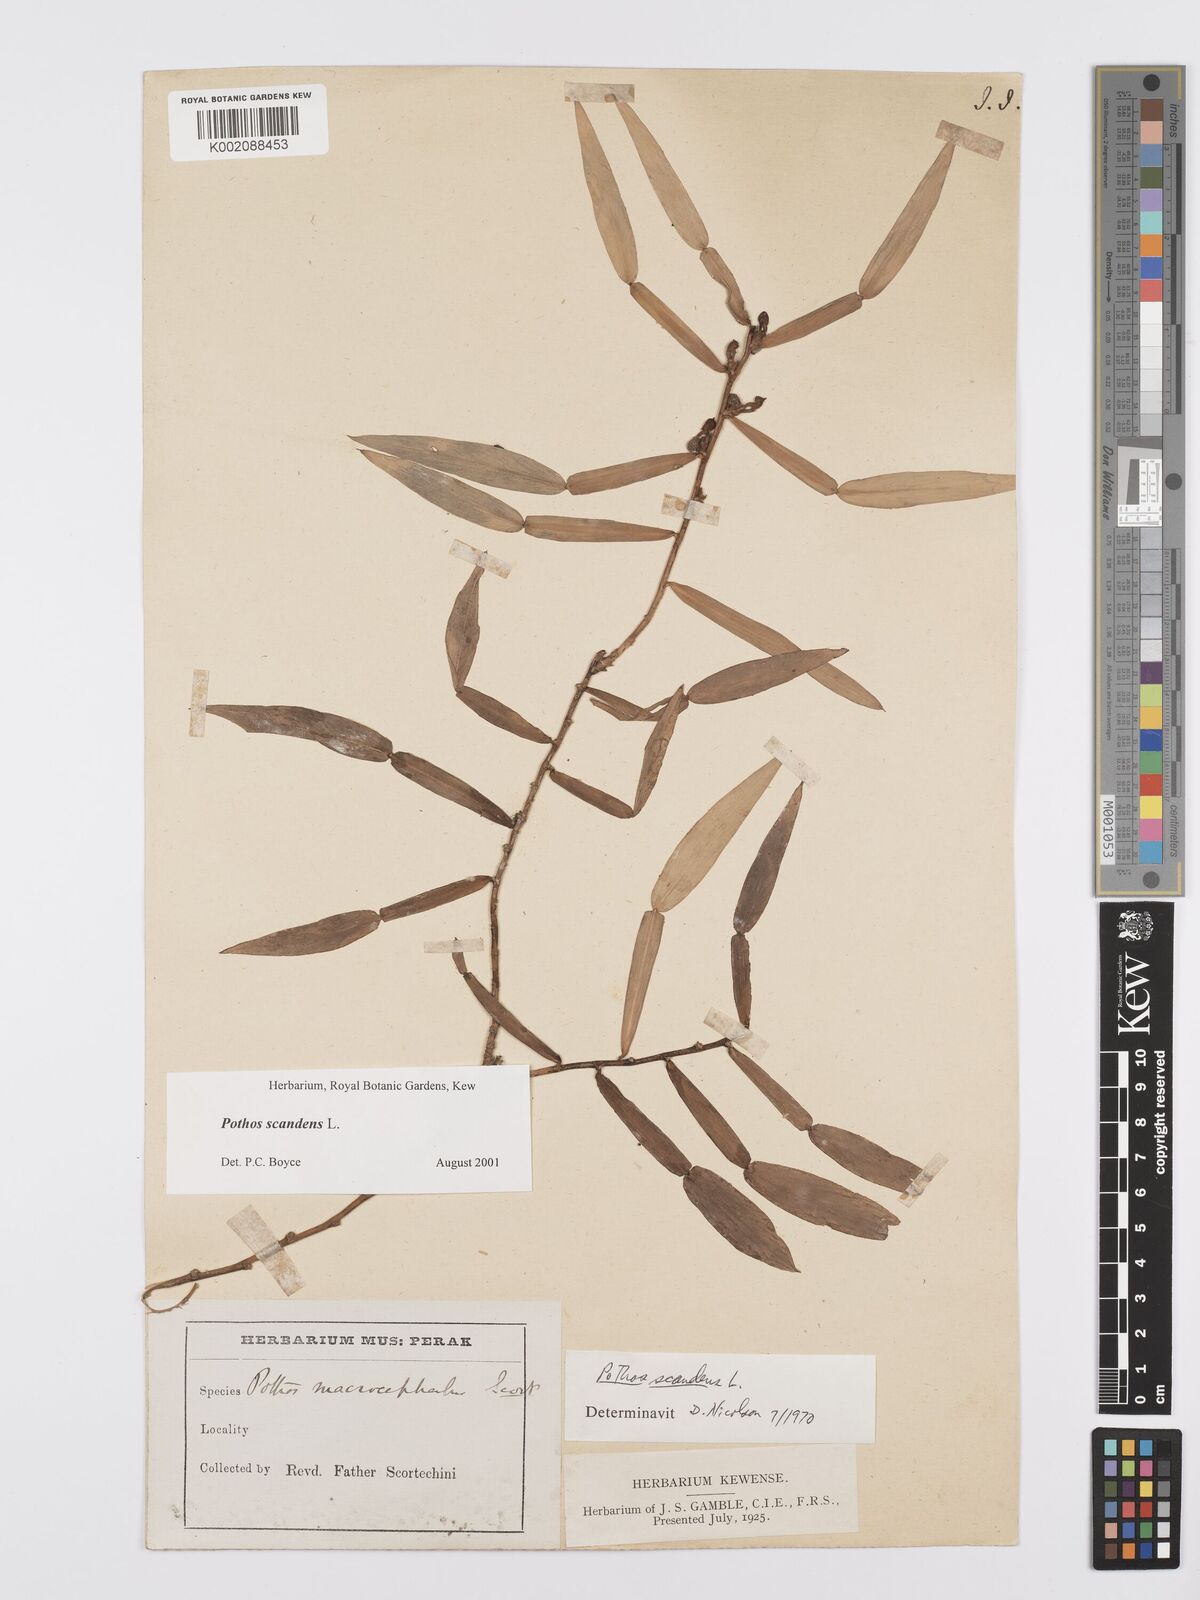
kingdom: Plantae
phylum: Tracheophyta
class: Liliopsida
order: Alismatales
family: Araceae
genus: Pothos
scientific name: Pothos scandens
